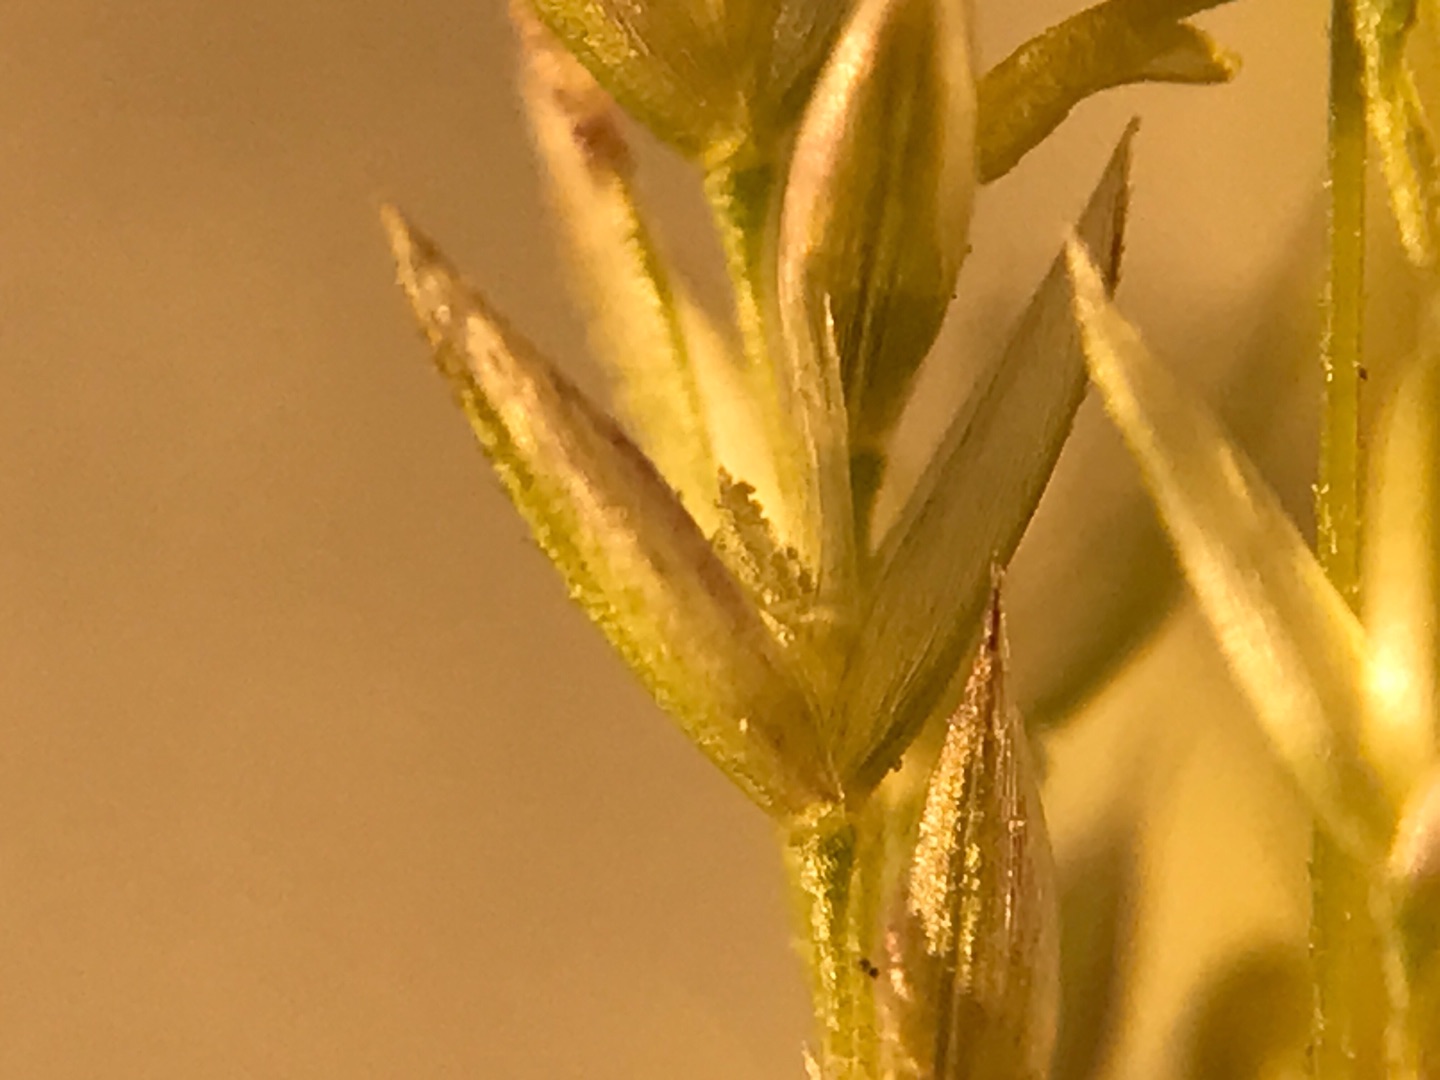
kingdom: Plantae
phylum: Tracheophyta
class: Liliopsida
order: Poales
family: Poaceae
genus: Agrostis
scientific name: Agrostis gigantea
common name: Stortoppet hvene
